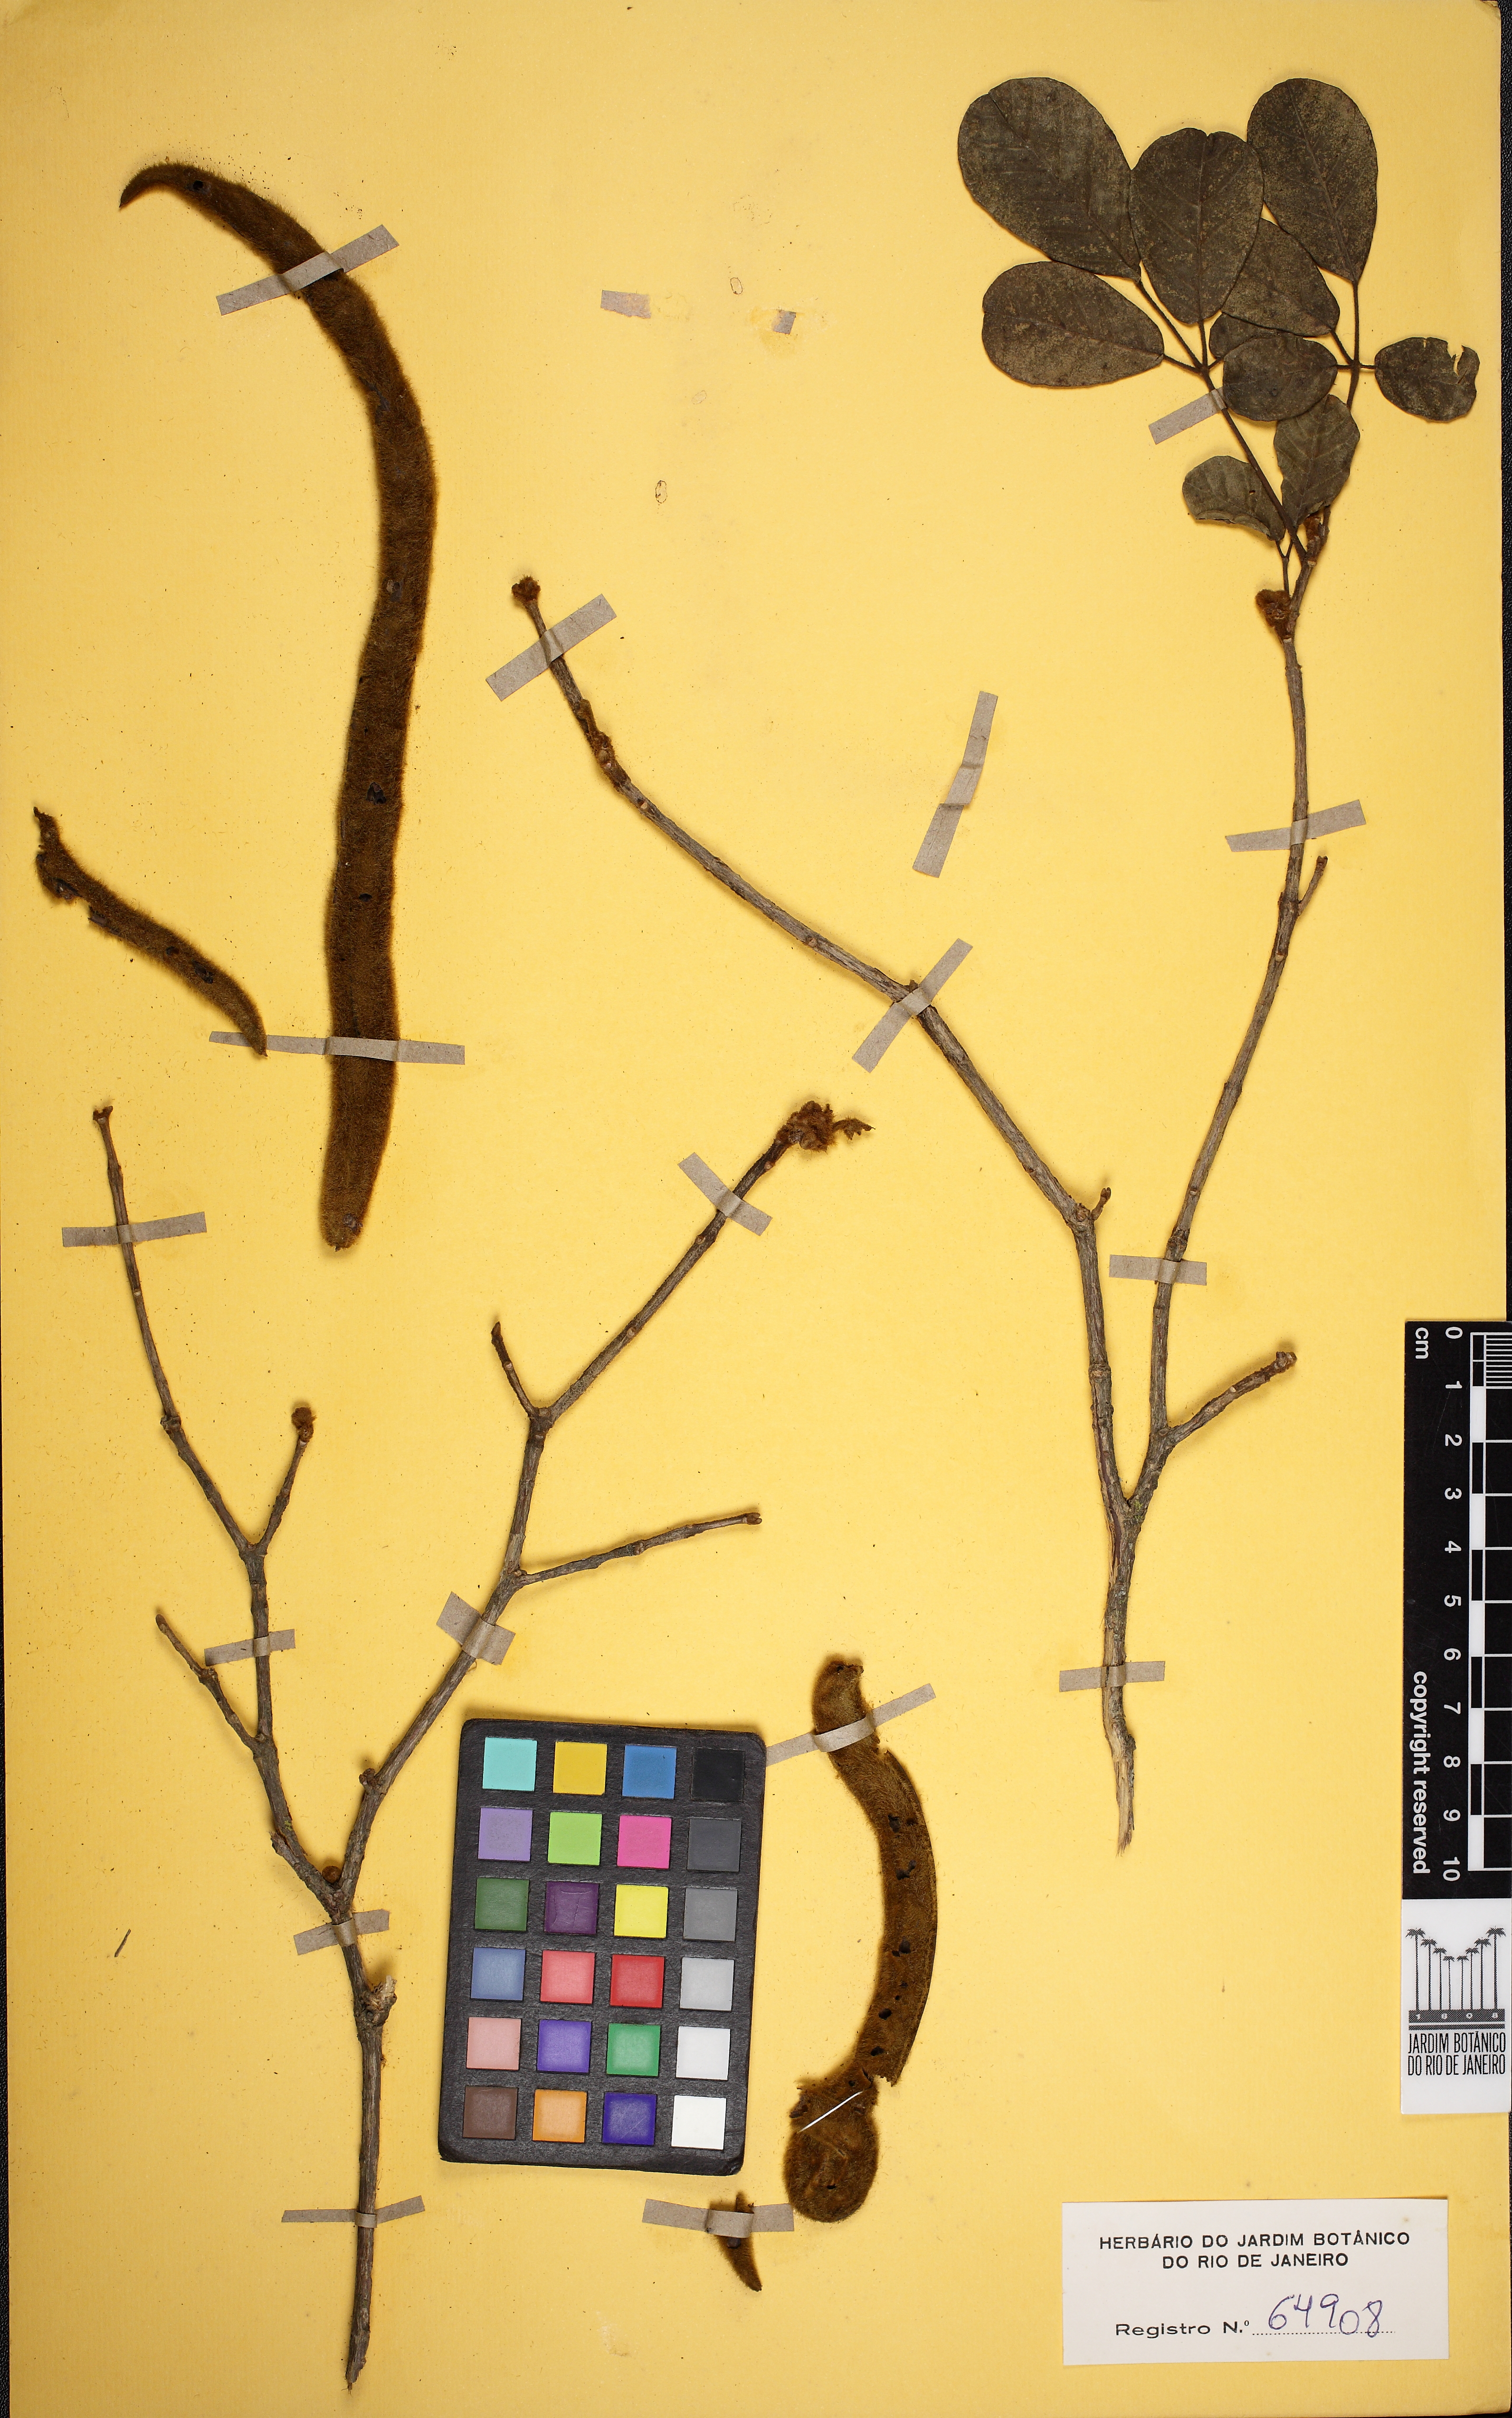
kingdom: Plantae
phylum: Tracheophyta
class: Magnoliopsida
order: Lamiales
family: Bignoniaceae
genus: Handroanthus
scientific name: Handroanthus chrysotrichus
